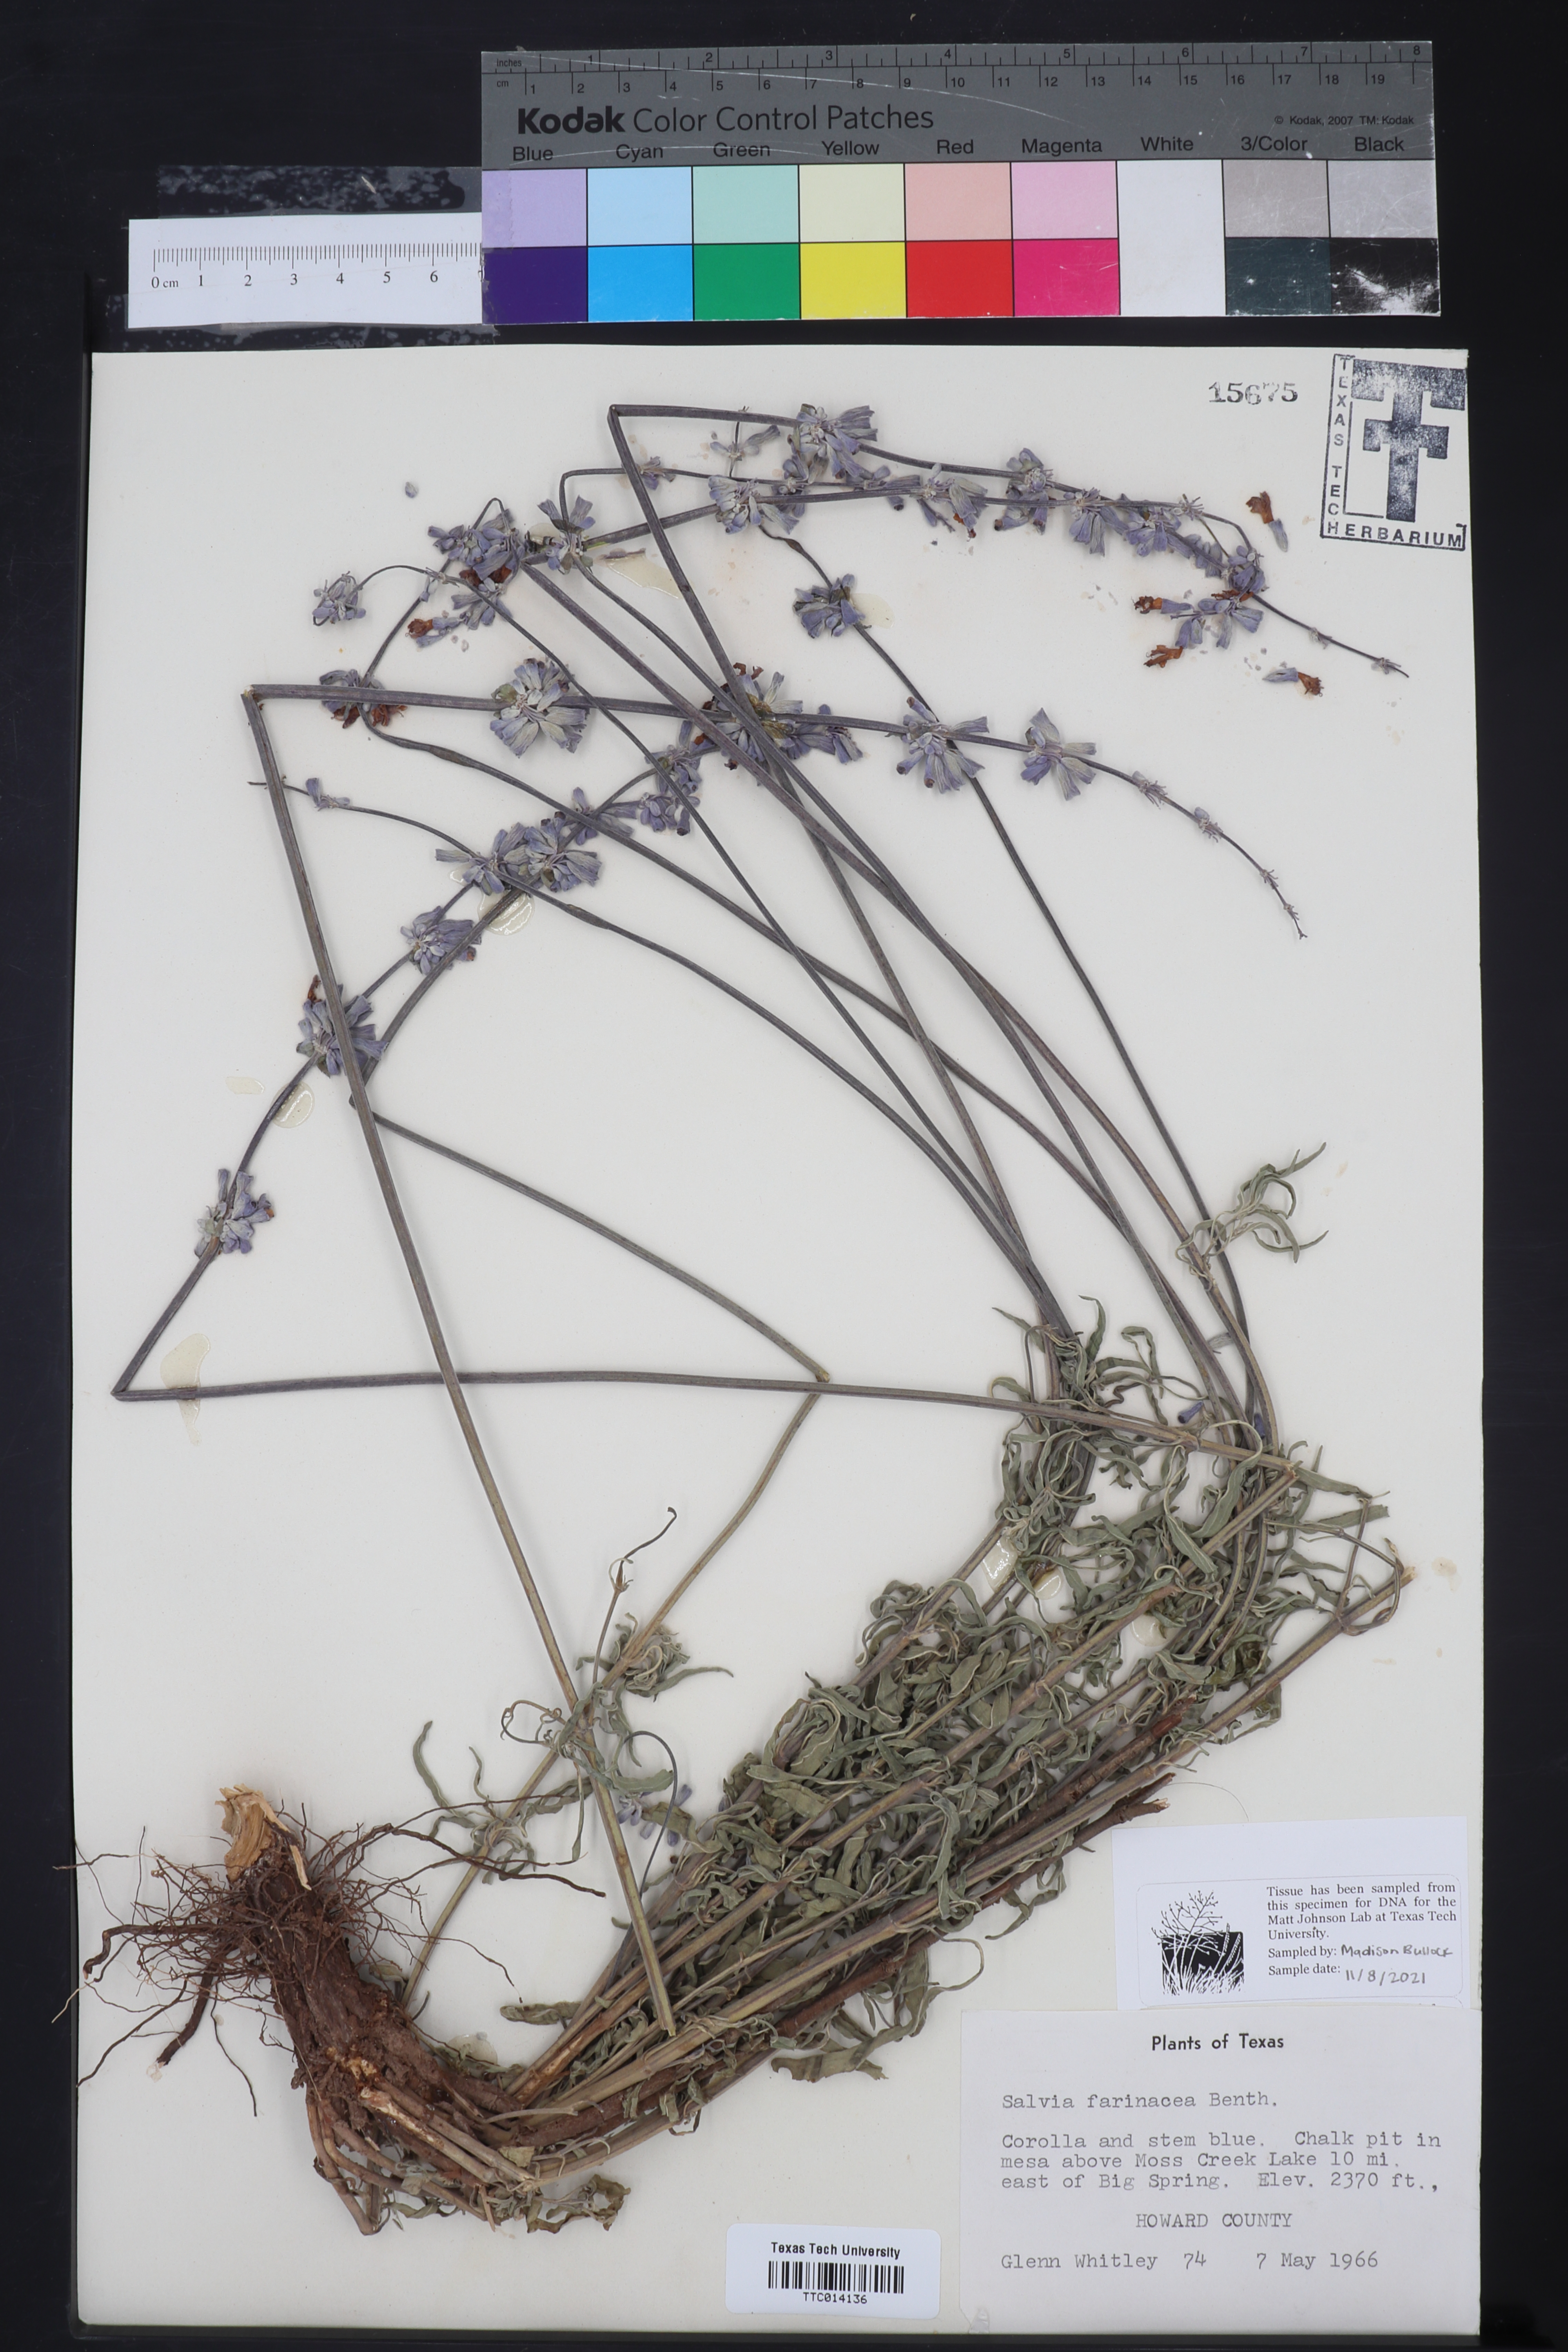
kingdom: Plantae
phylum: Tracheophyta
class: Magnoliopsida
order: Lamiales
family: Lamiaceae
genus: Salvia
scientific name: Salvia farinacea
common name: Mealy sage
